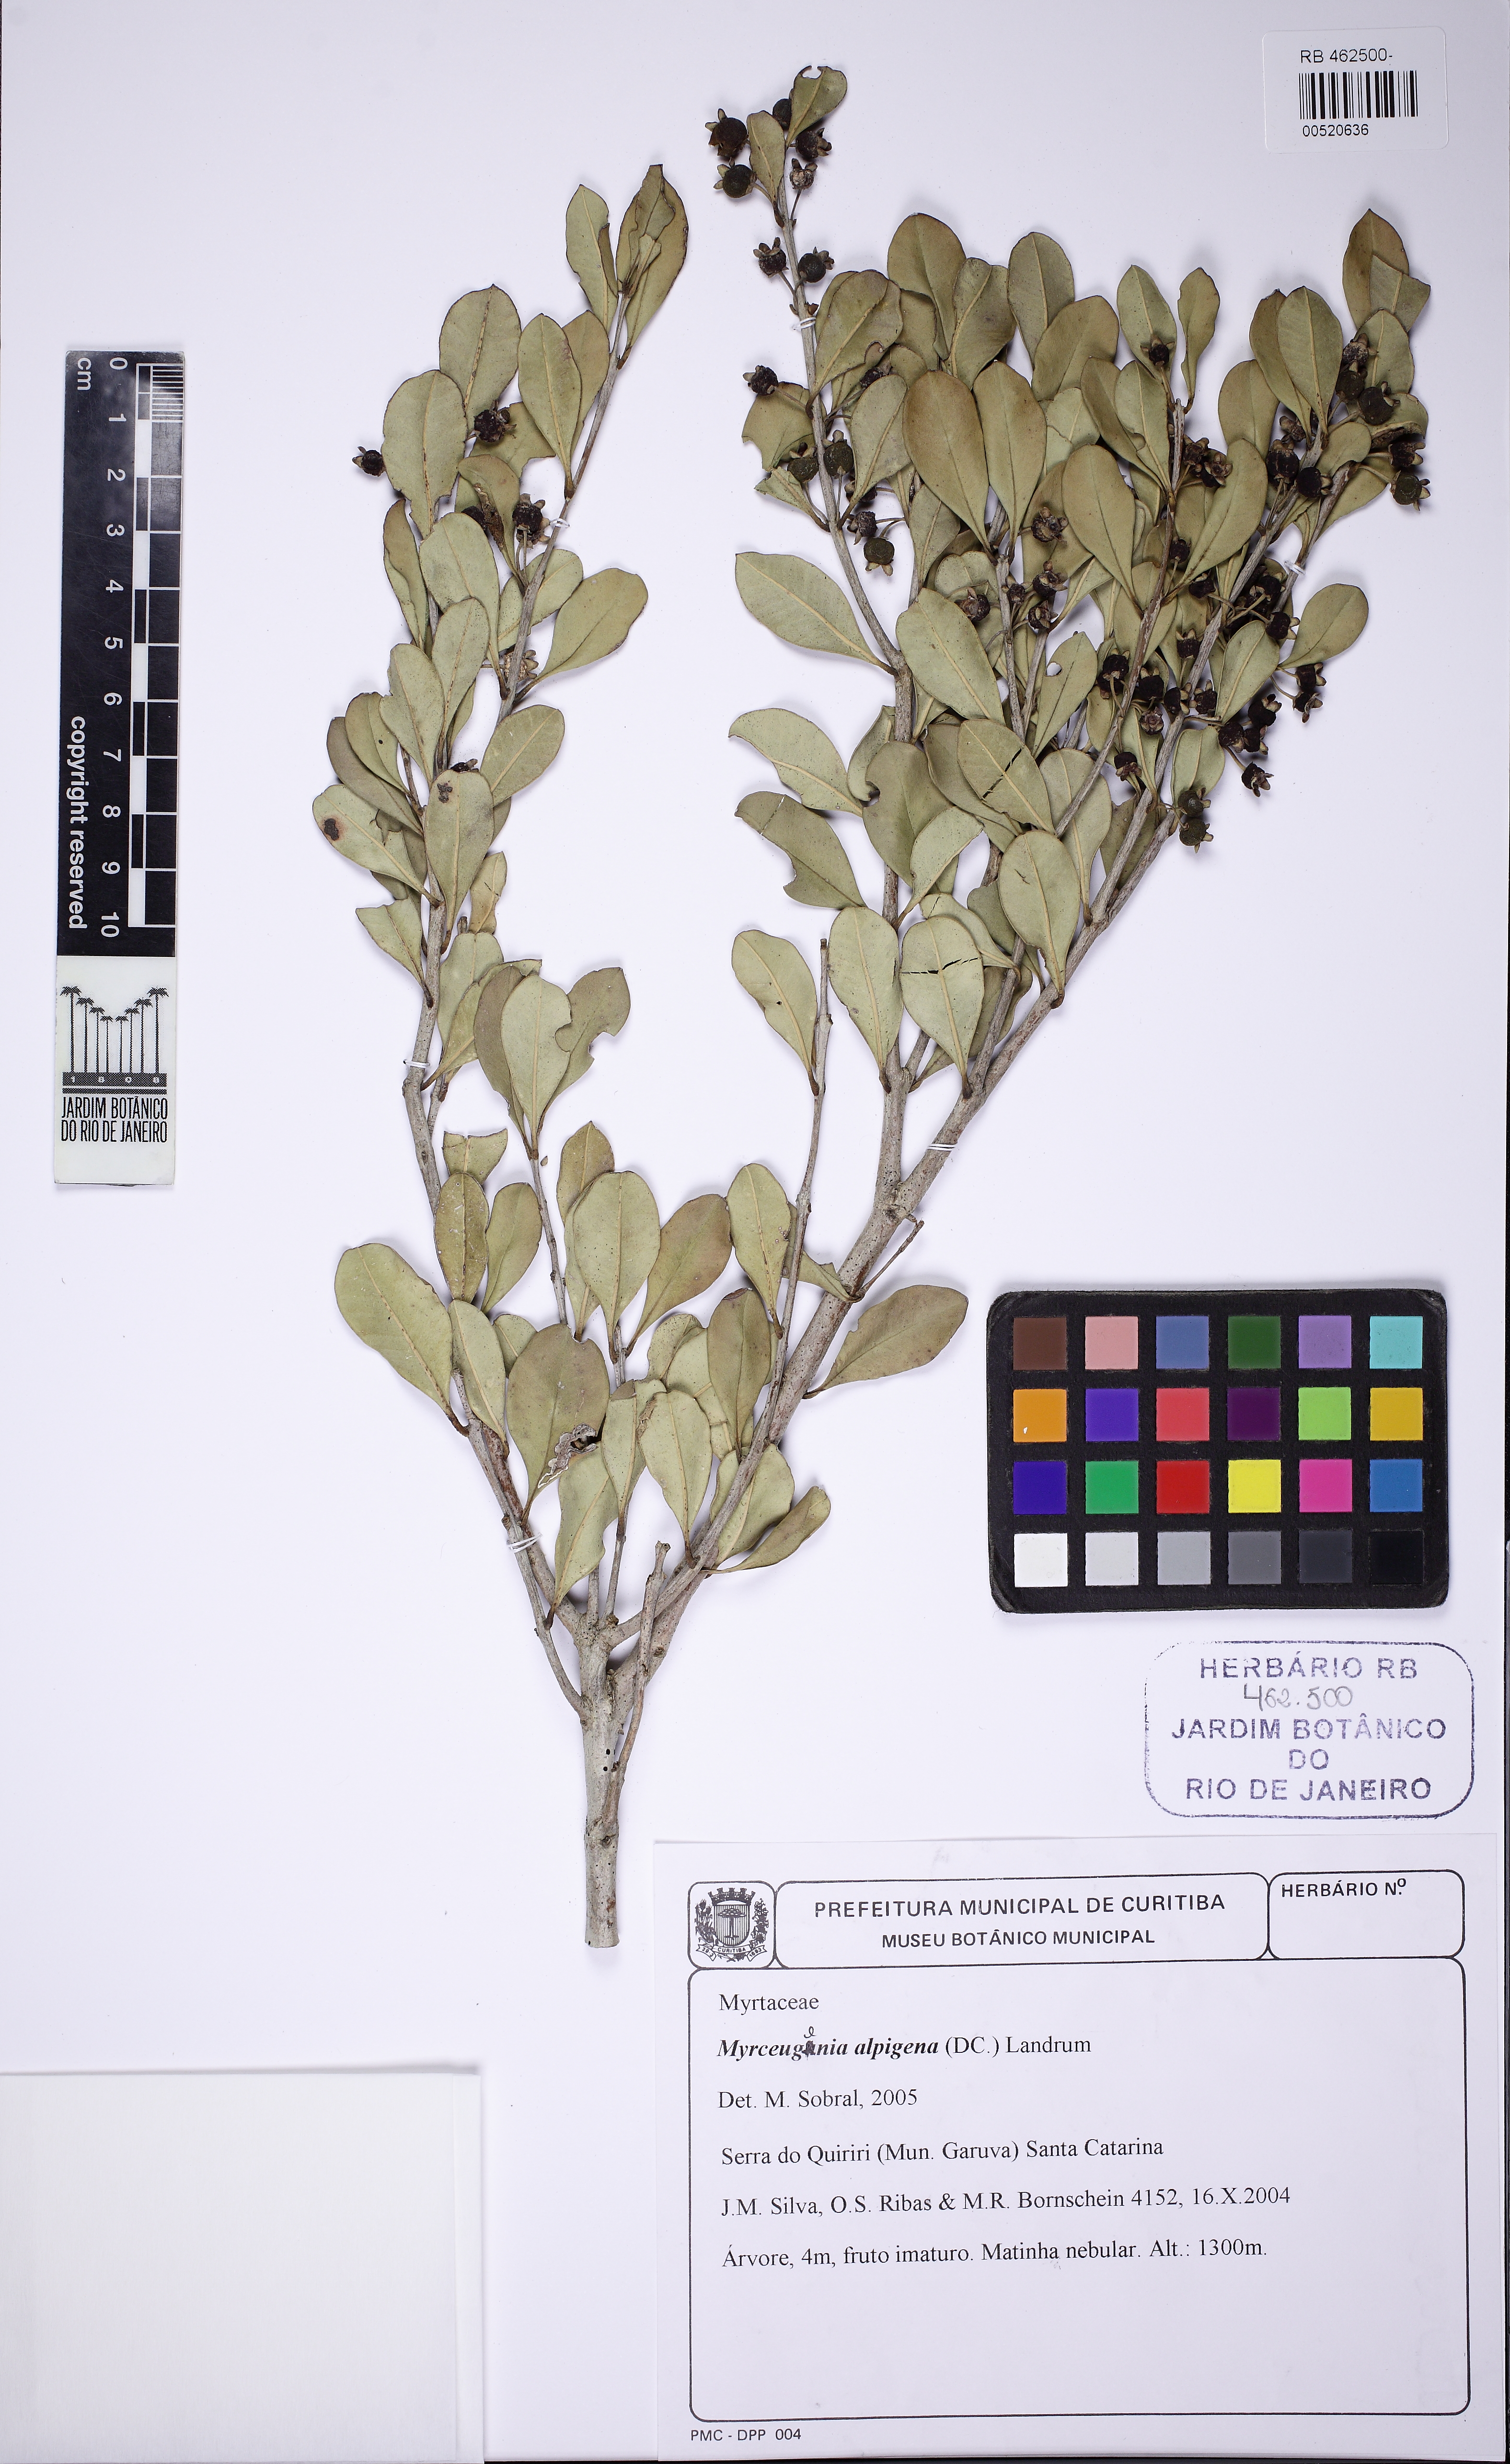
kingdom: Plantae
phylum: Tracheophyta
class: Magnoliopsida
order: Myrtales
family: Myrtaceae
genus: Myrceugenia
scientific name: Myrceugenia alpigena
